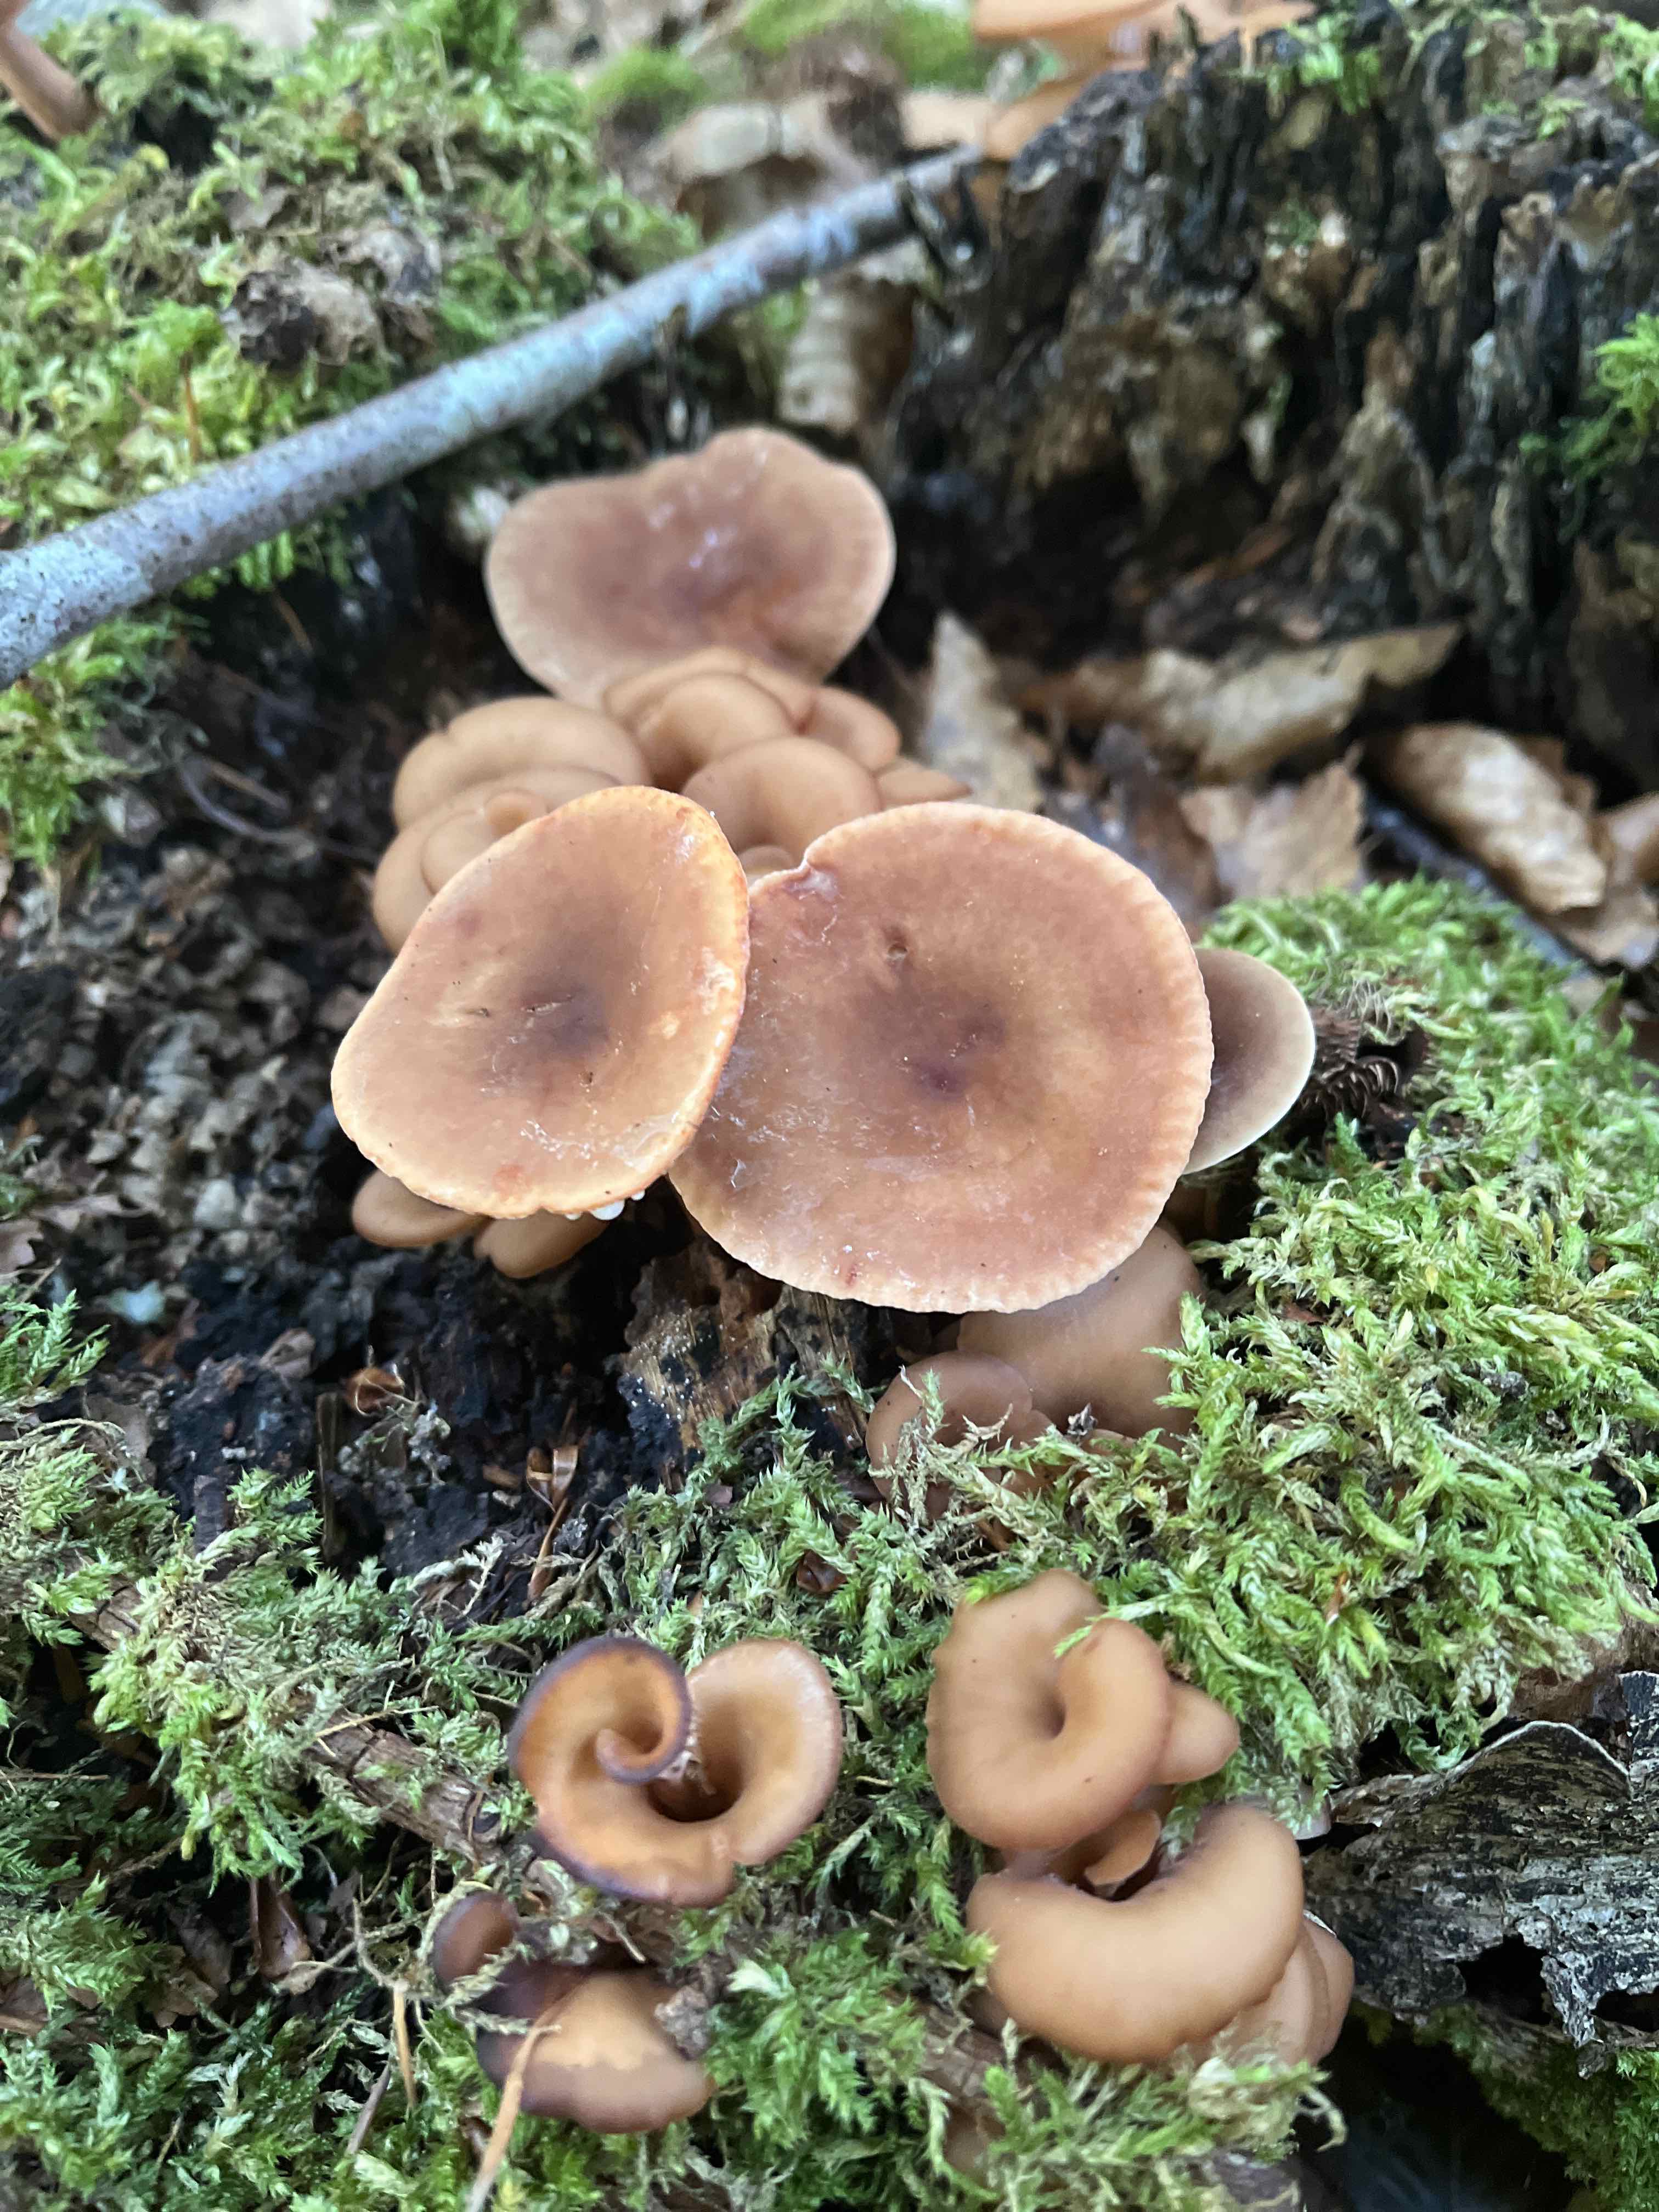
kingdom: Fungi
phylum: Basidiomycota
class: Agaricomycetes
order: Russulales
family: Russulaceae
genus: Lactarius
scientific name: Lactarius
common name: mælkehat
